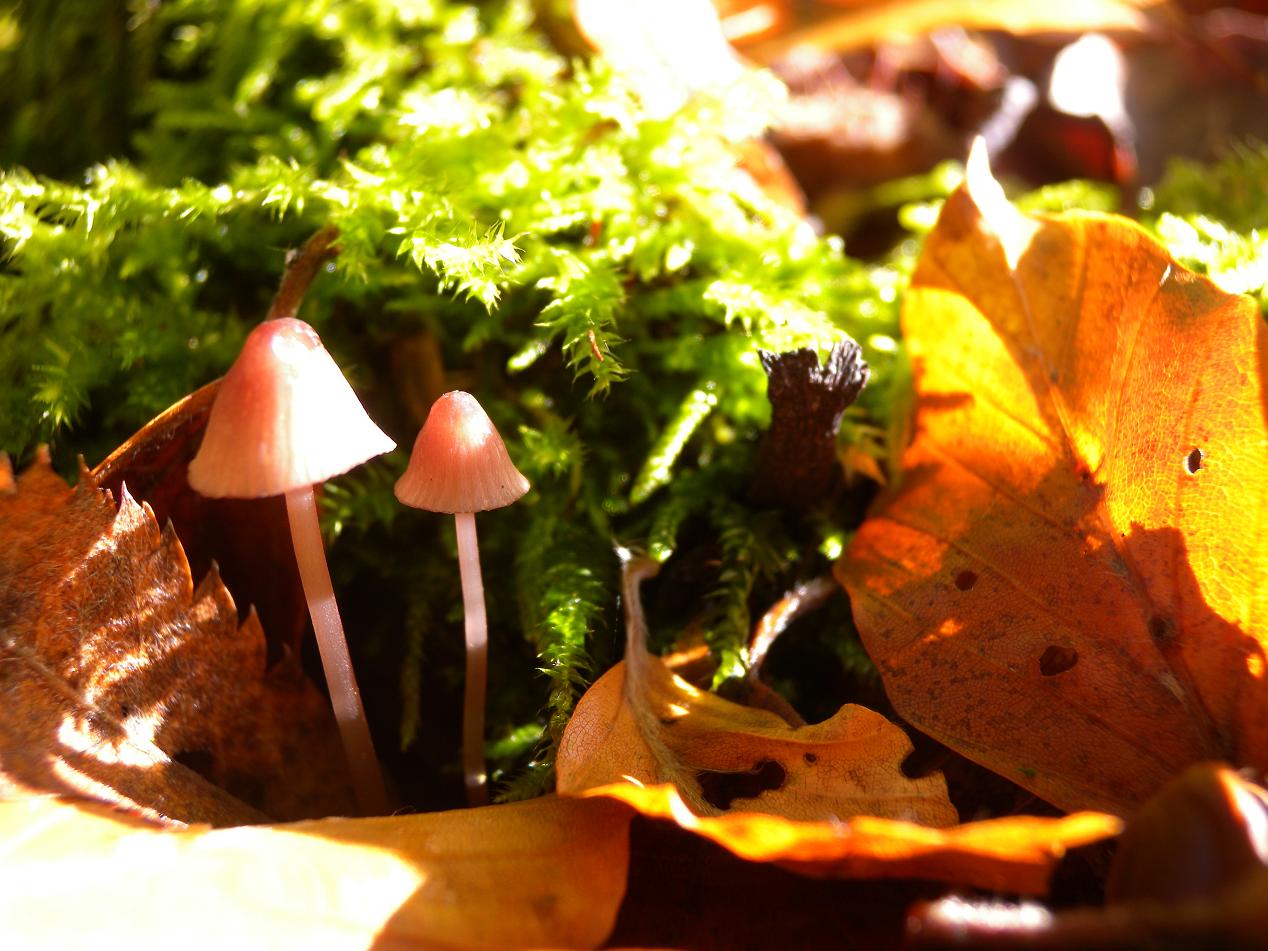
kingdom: Fungi
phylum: Basidiomycota
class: Agaricomycetes
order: Agaricales
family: Mycenaceae
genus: Mycena
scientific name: Mycena sanguinolenta
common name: rødmælket huesvamp
